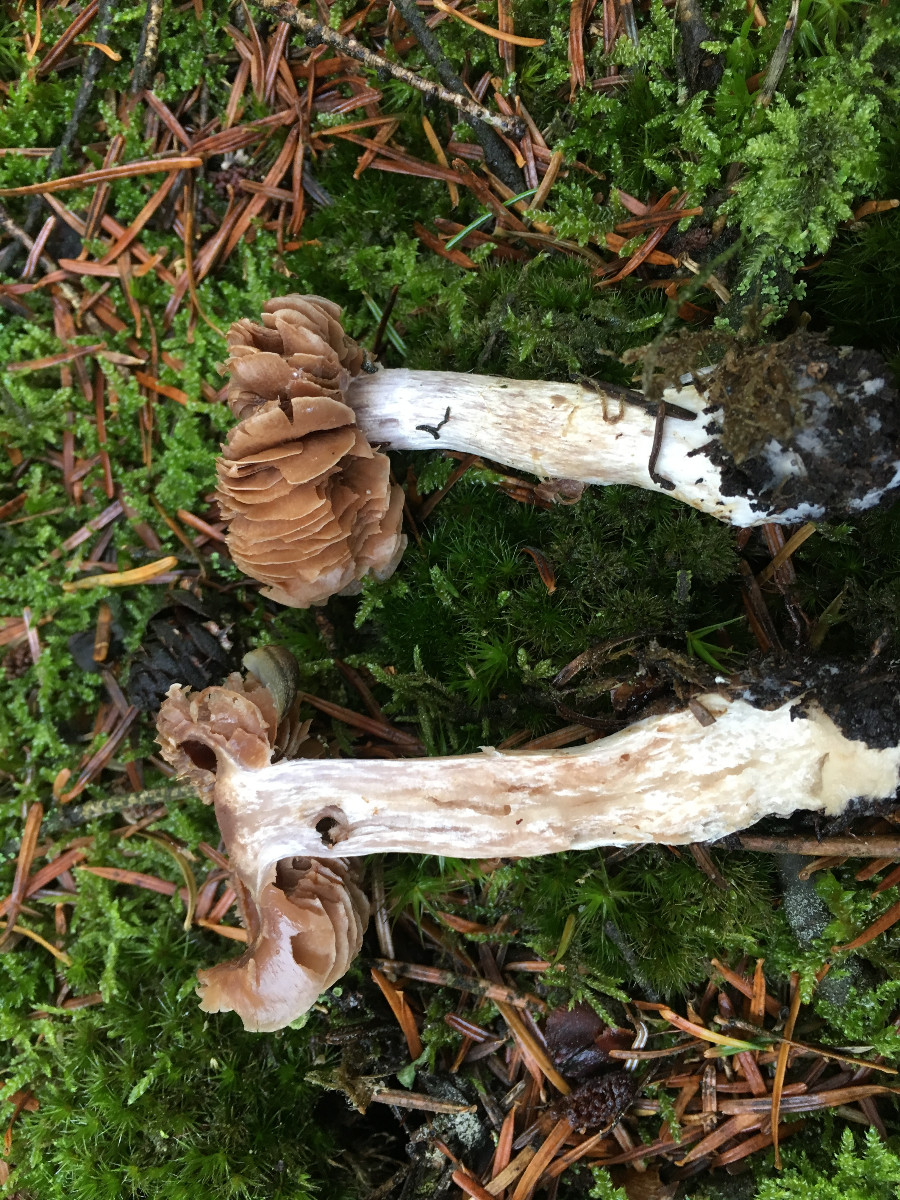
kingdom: Fungi
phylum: Basidiomycota
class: Agaricomycetes
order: Agaricales
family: Cortinariaceae
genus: Cortinarius
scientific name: Cortinarius
